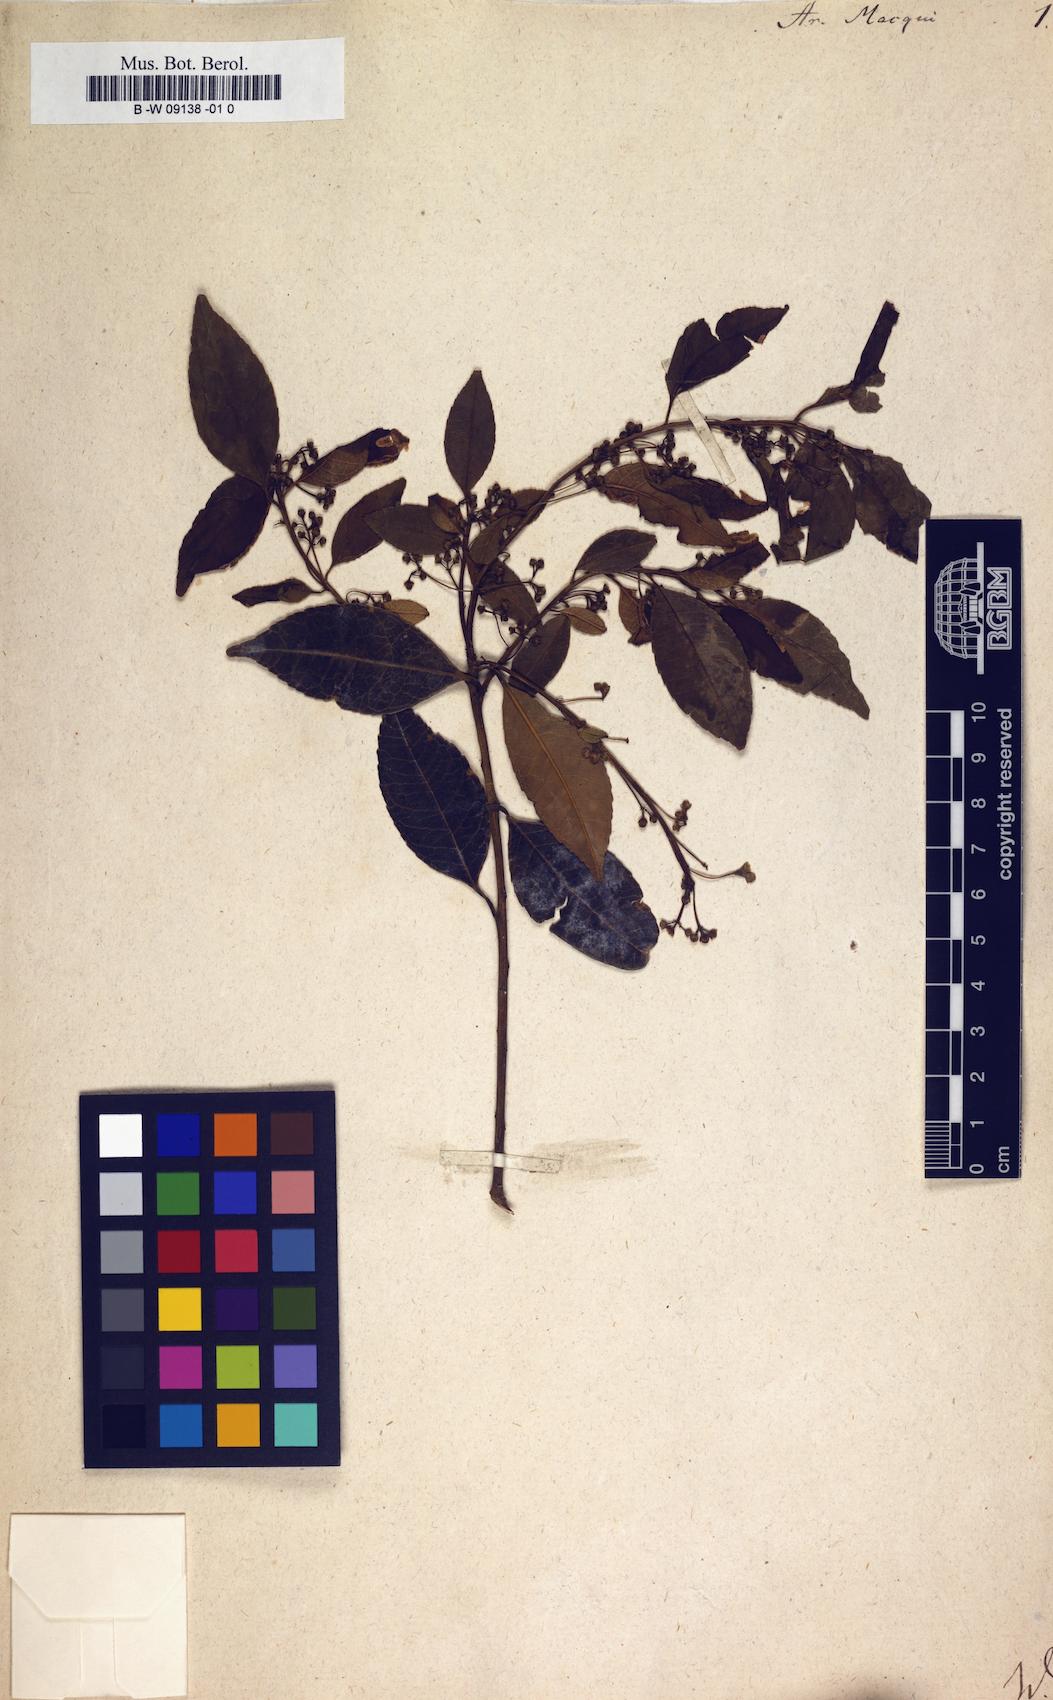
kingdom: Plantae
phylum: Tracheophyta
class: Magnoliopsida
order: Oxalidales
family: Elaeocarpaceae
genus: Aristotelia
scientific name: Aristotelia chilensis
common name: Maquei
